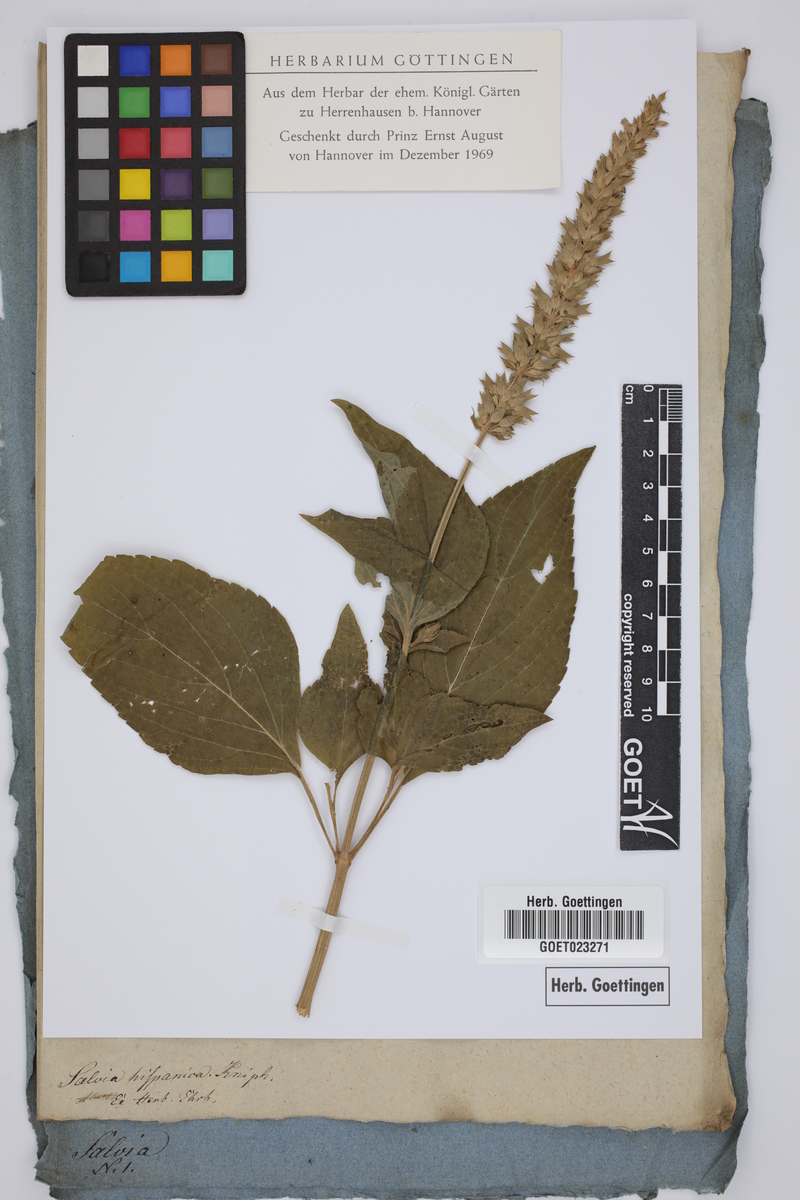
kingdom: Plantae
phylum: Tracheophyta
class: Magnoliopsida
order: Lamiales
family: Lamiaceae
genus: Salvia
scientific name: Salvia hispanica
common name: Chia
